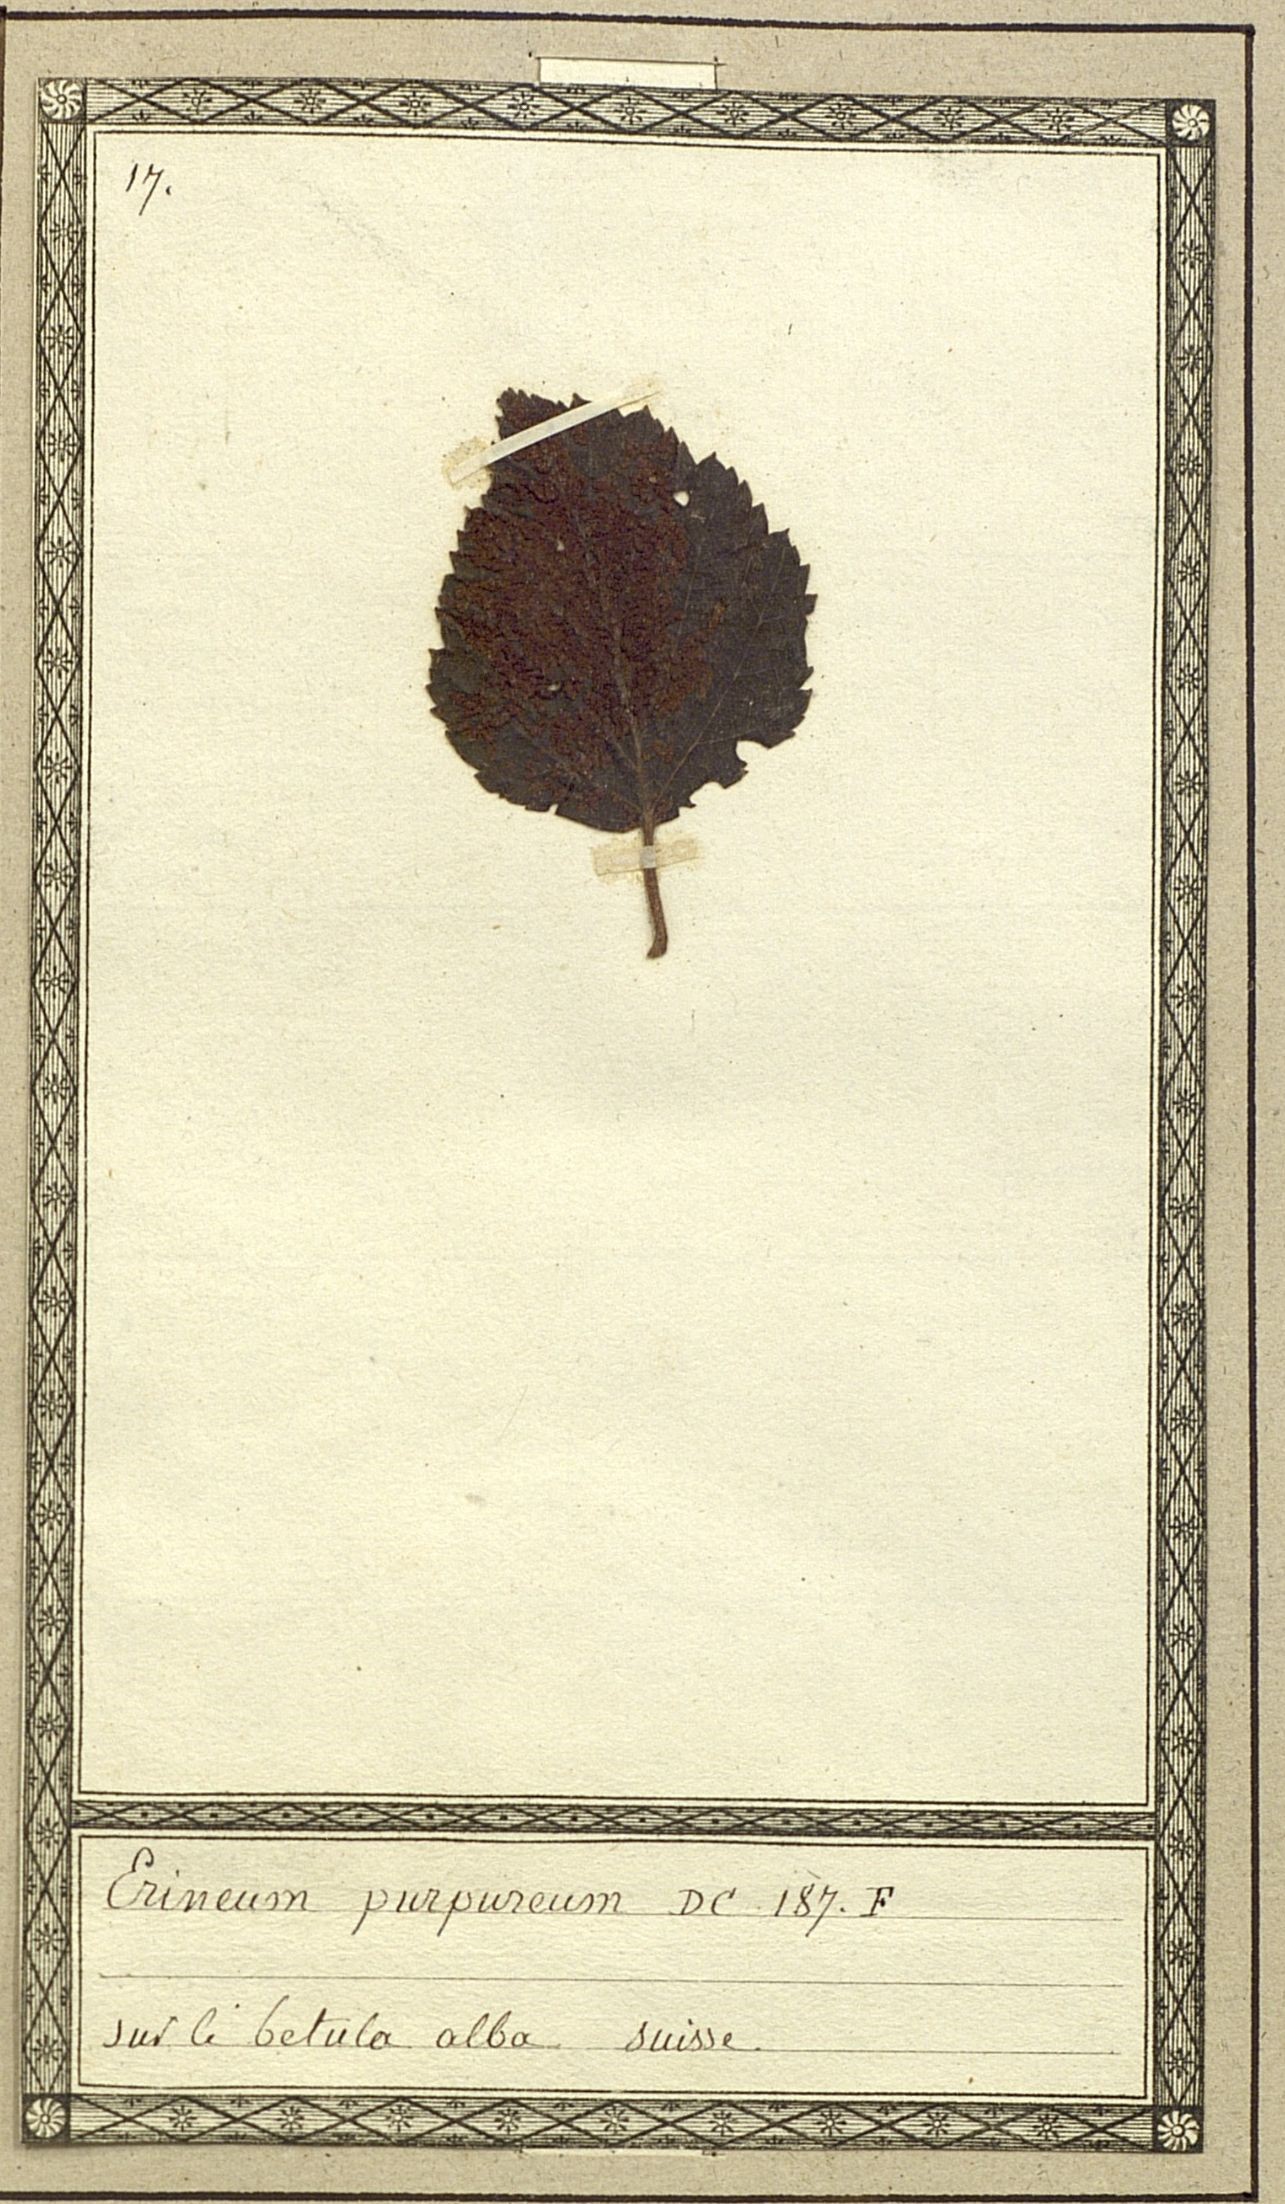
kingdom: Fungi
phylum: Basidiomycota
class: Pucciniomycetes
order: Pucciniales
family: Cronartiaceae
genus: Erineum
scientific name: Erineum purpureum
